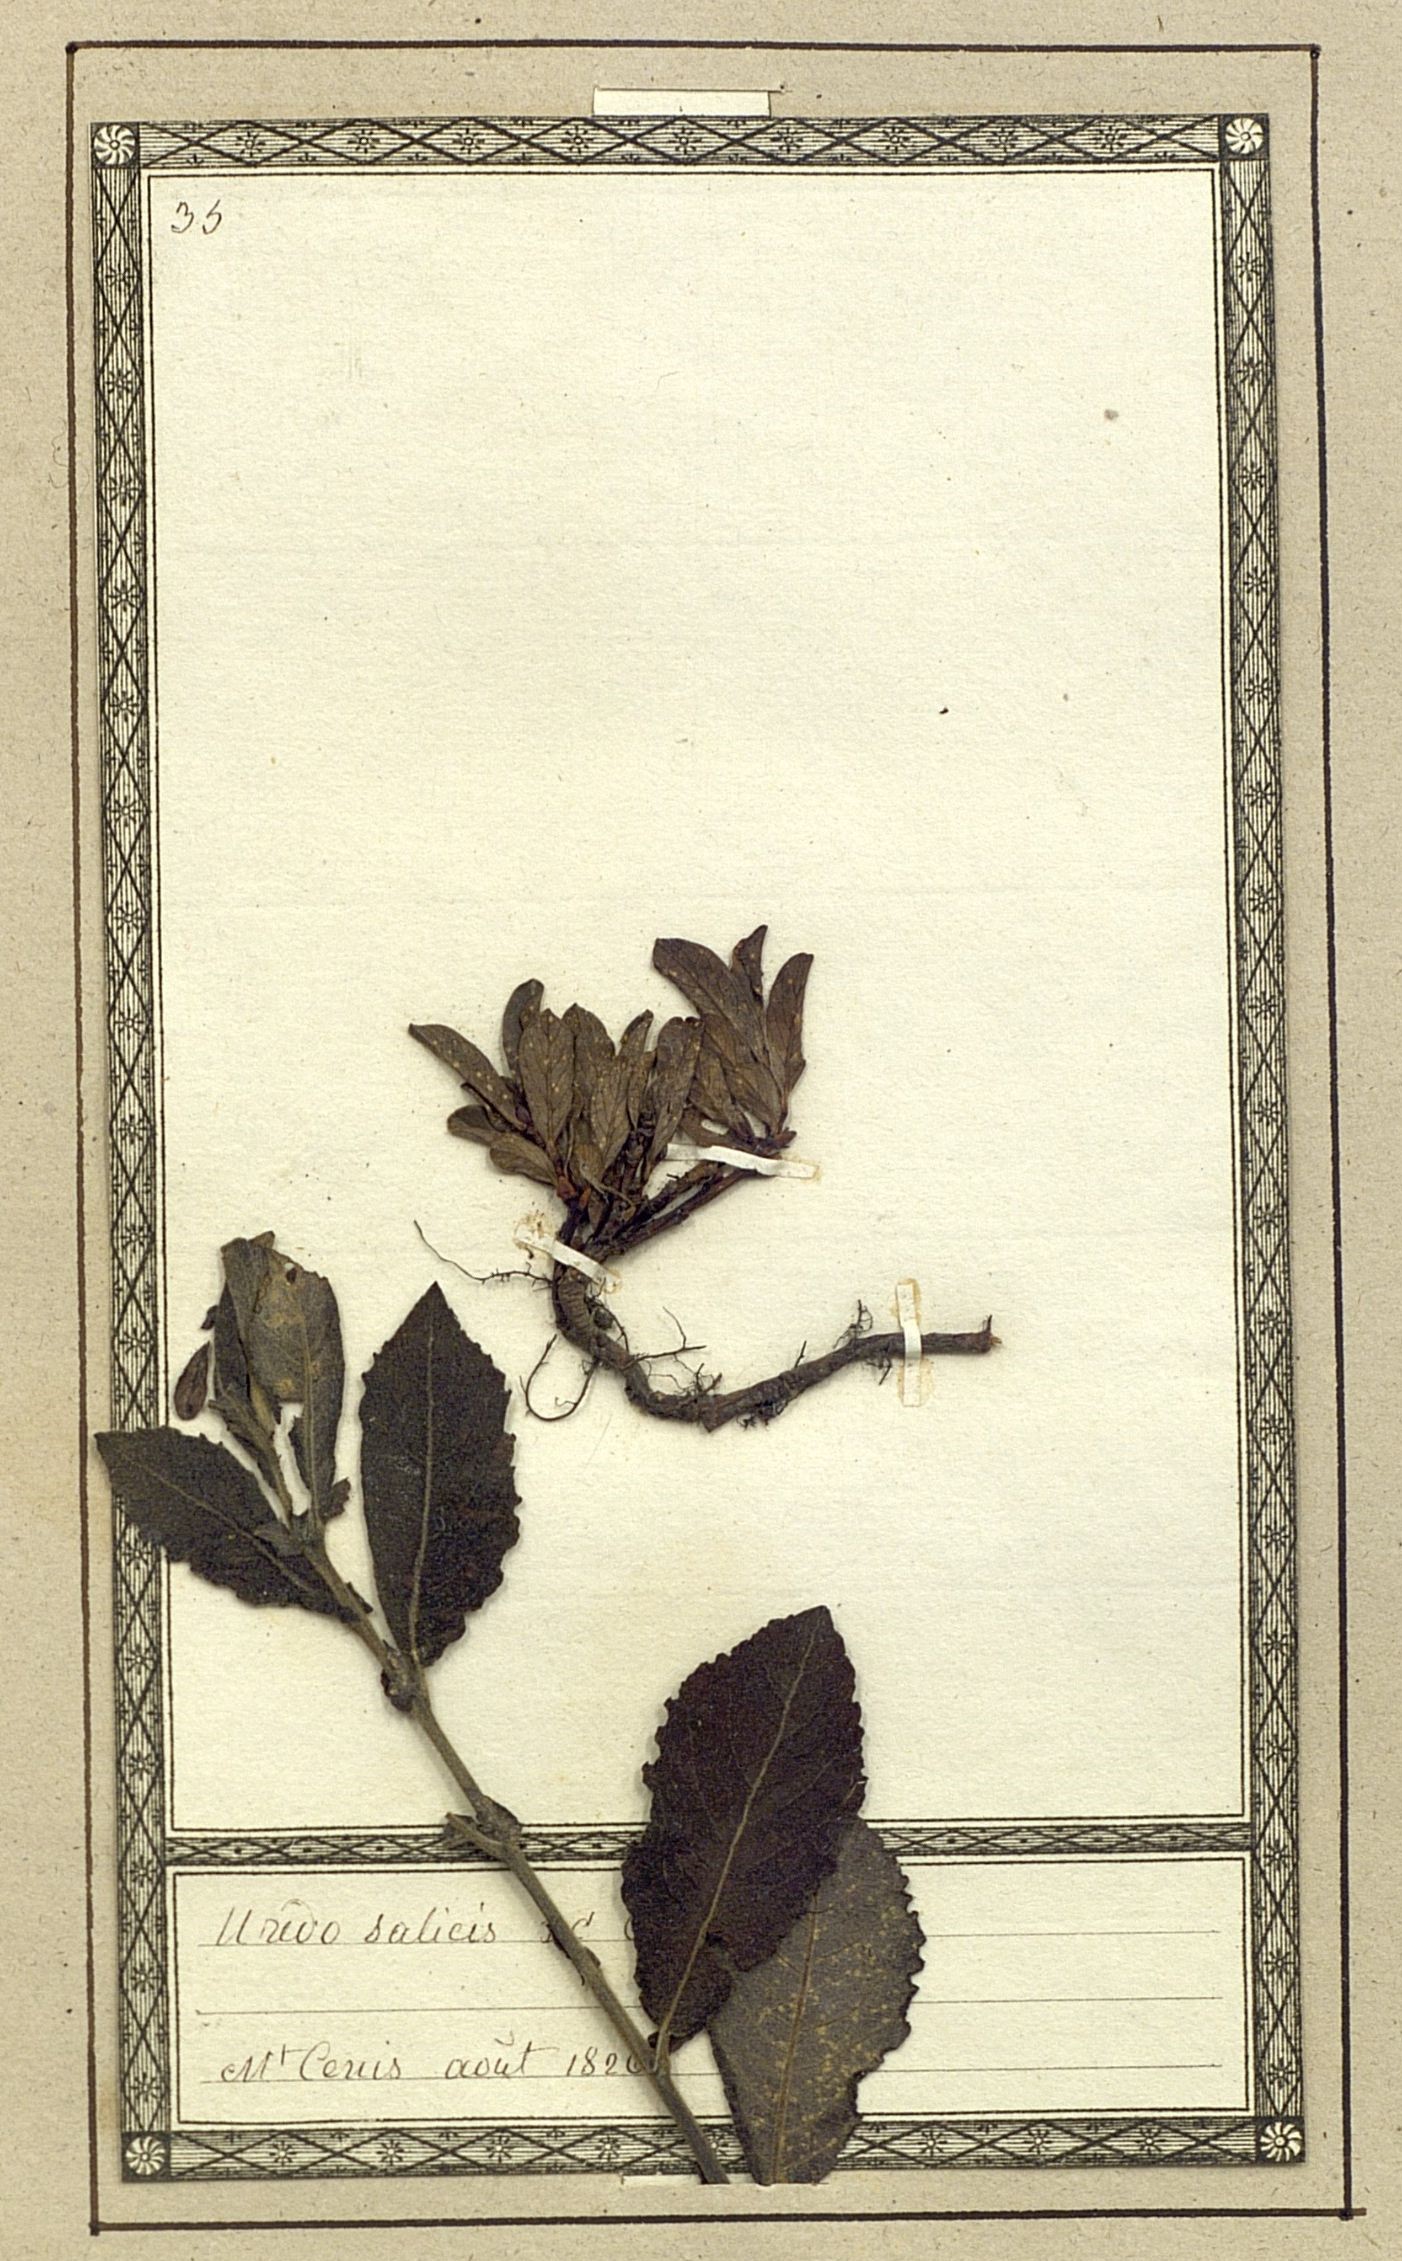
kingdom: Fungi
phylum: Basidiomycota
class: Pucciniomycetes
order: Pucciniales
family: Pucciniaceae
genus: Uredo
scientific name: Uredo
